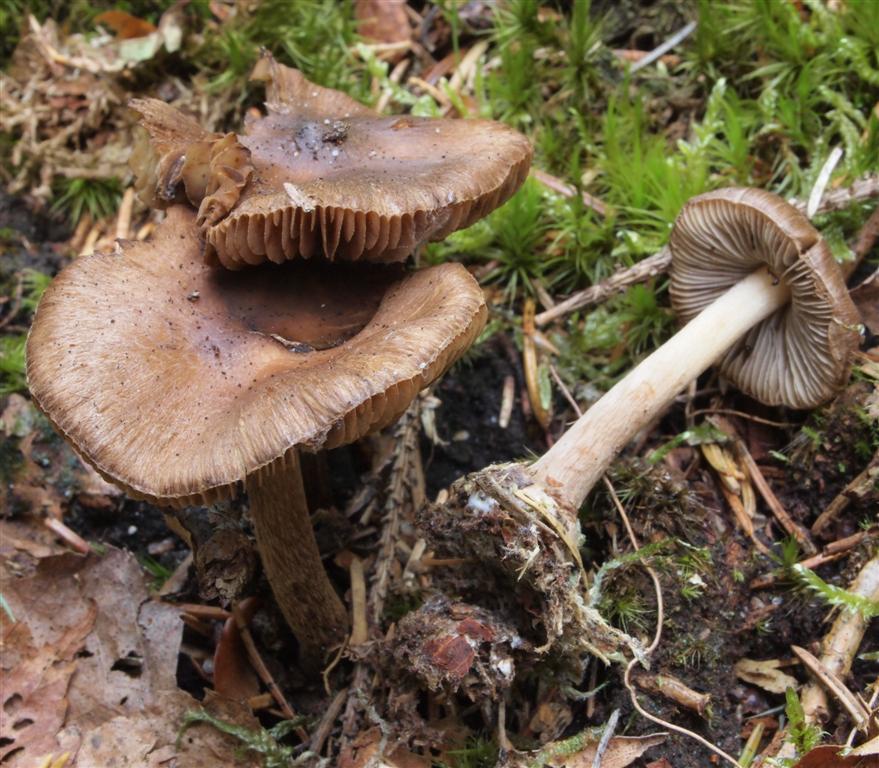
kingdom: Fungi
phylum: Basidiomycota
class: Agaricomycetes
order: Agaricales
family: Inocybaceae
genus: Inocybe
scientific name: Inocybe napipes
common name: roeknoldet trævlhat
